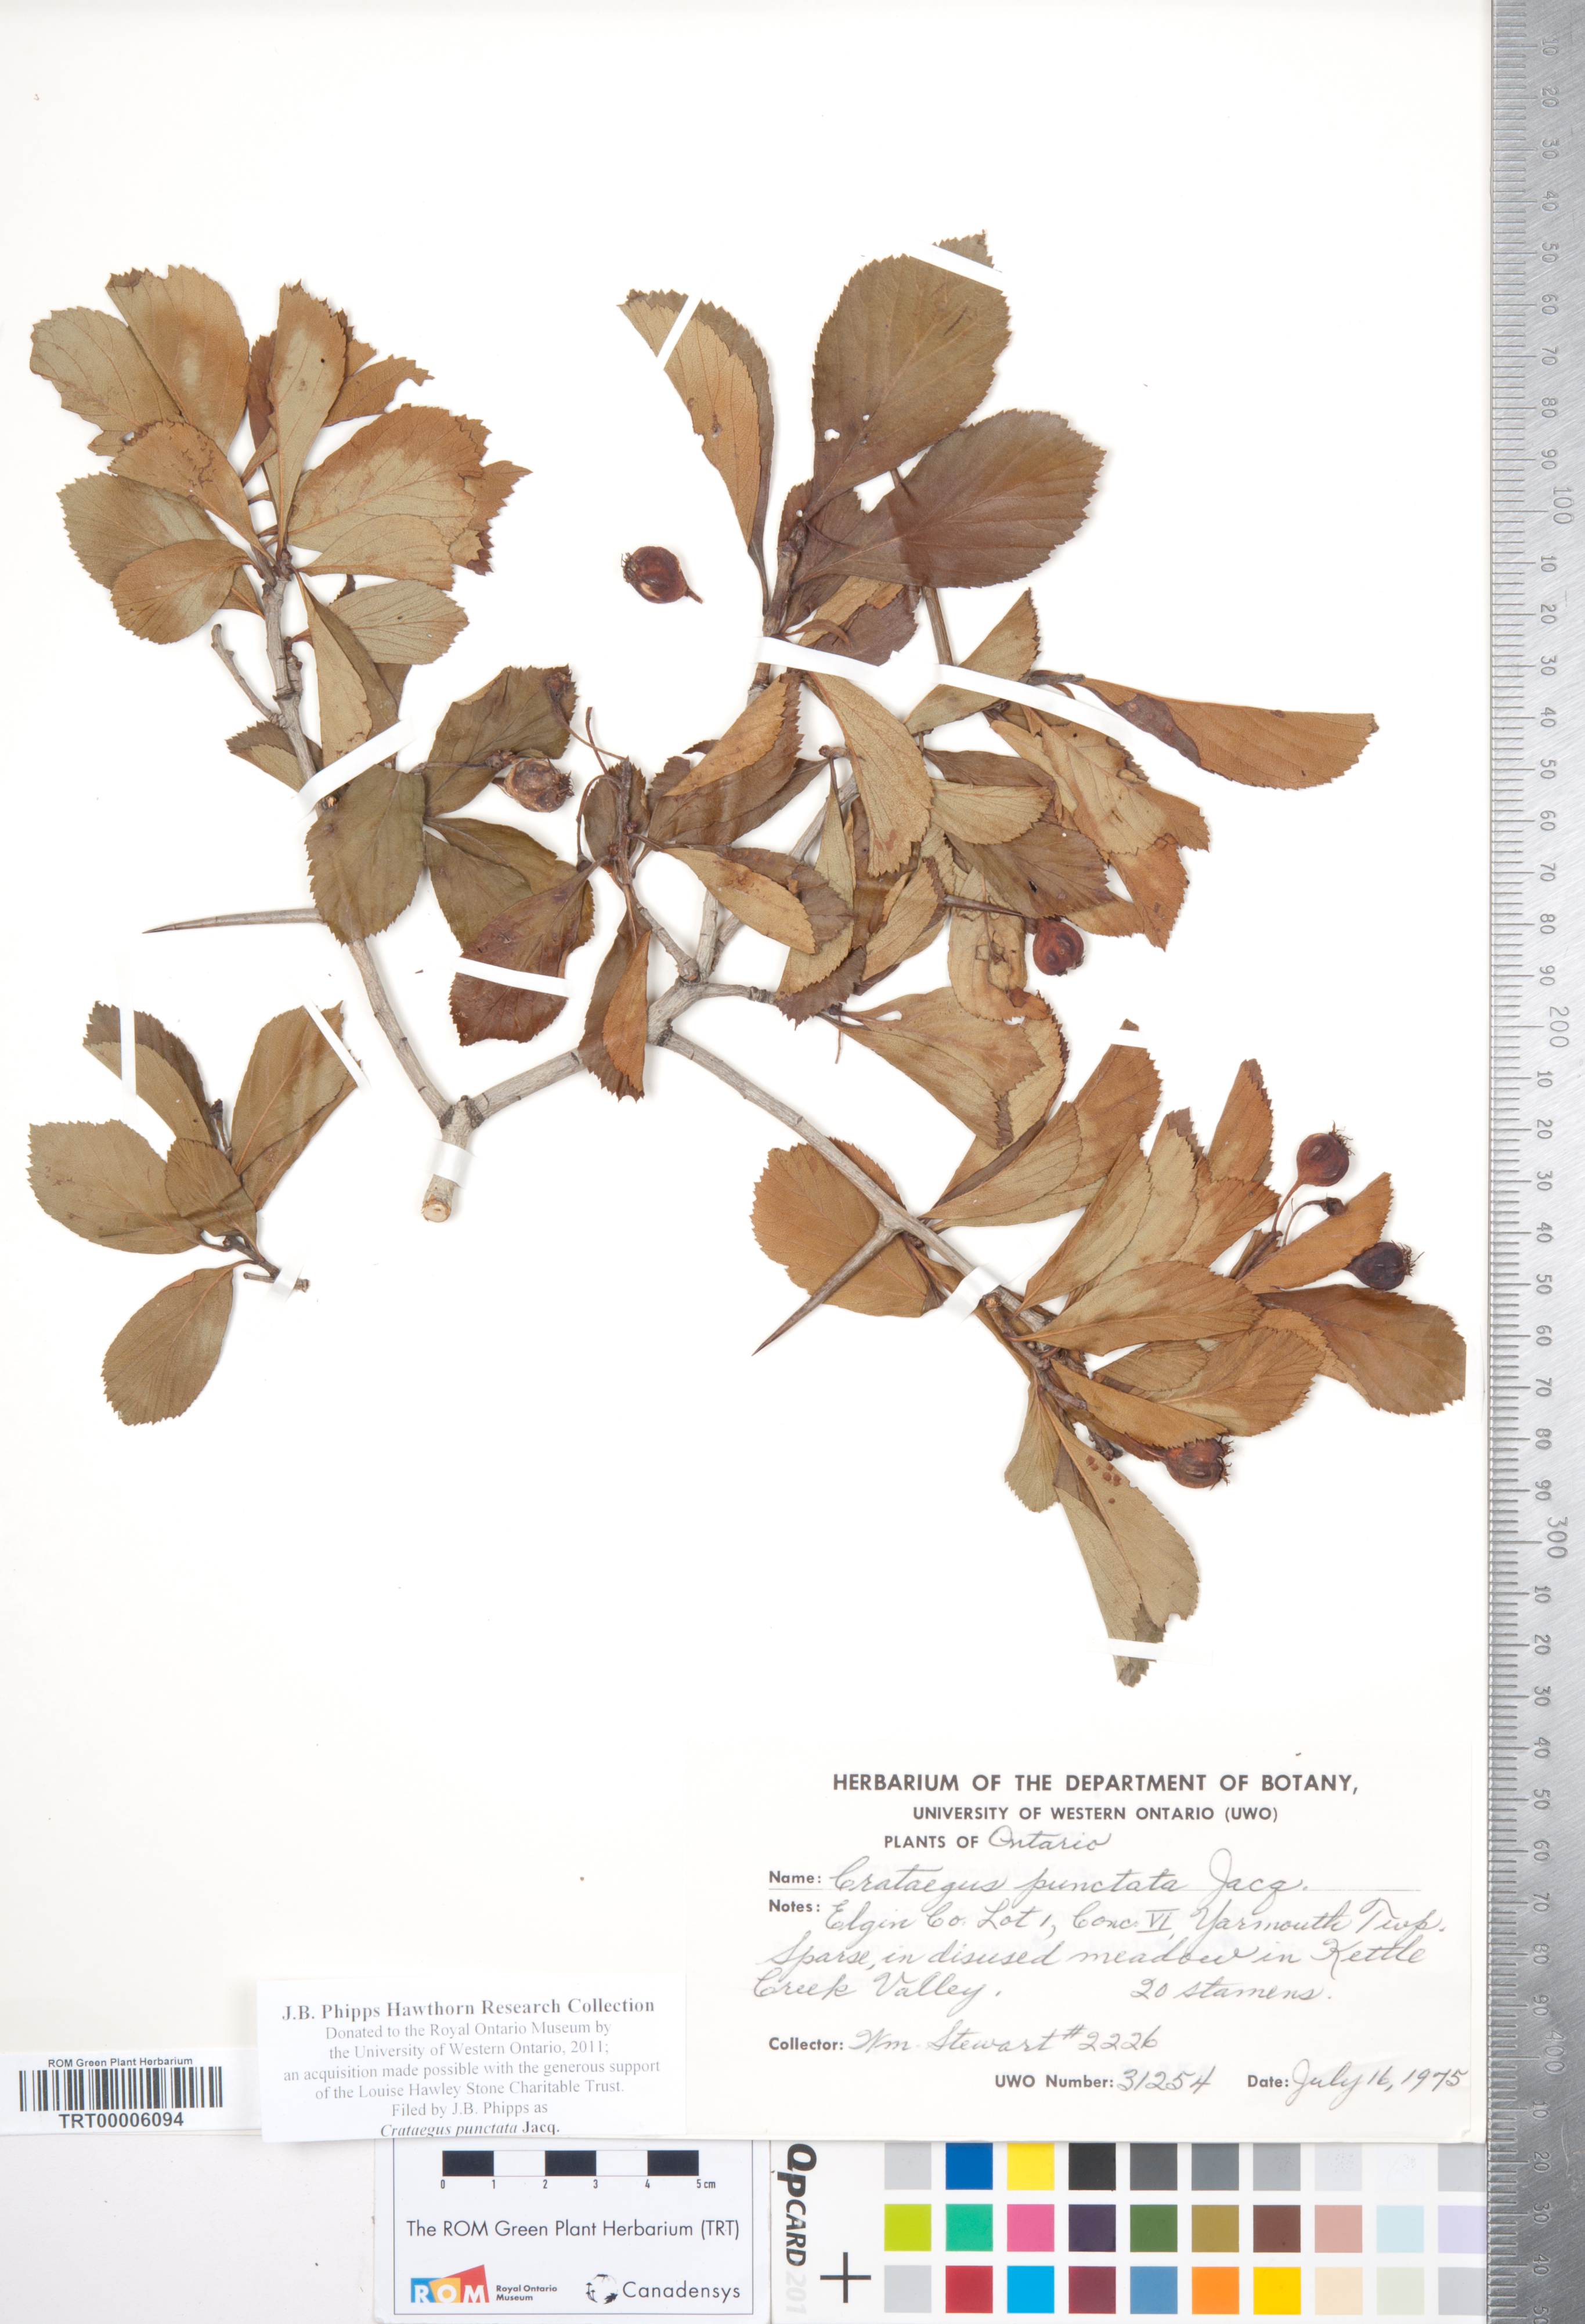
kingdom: Plantae
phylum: Tracheophyta
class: Magnoliopsida
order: Rosales
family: Rosaceae
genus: Crataegus
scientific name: Crataegus punctata
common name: Dotted hawthorn
